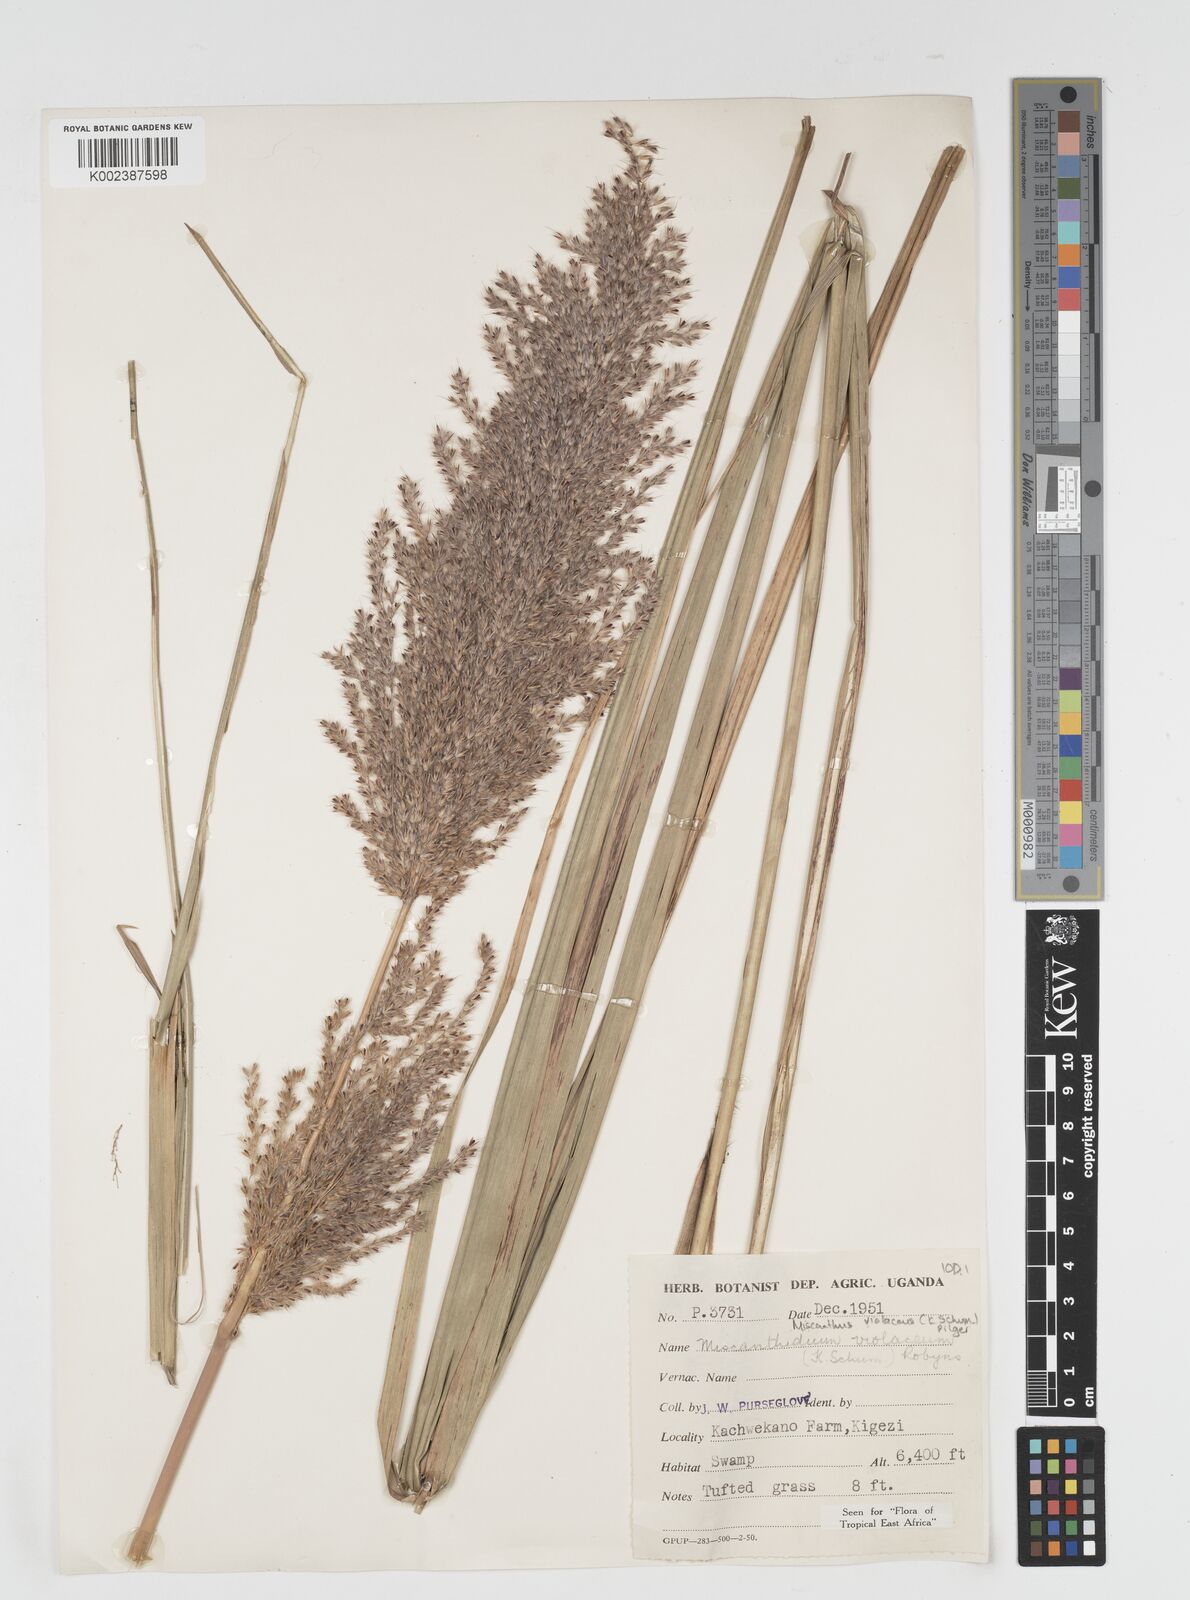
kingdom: Plantae
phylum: Tracheophyta
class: Liliopsida
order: Poales
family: Poaceae
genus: Miscanthidium
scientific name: Miscanthidium violaceum
